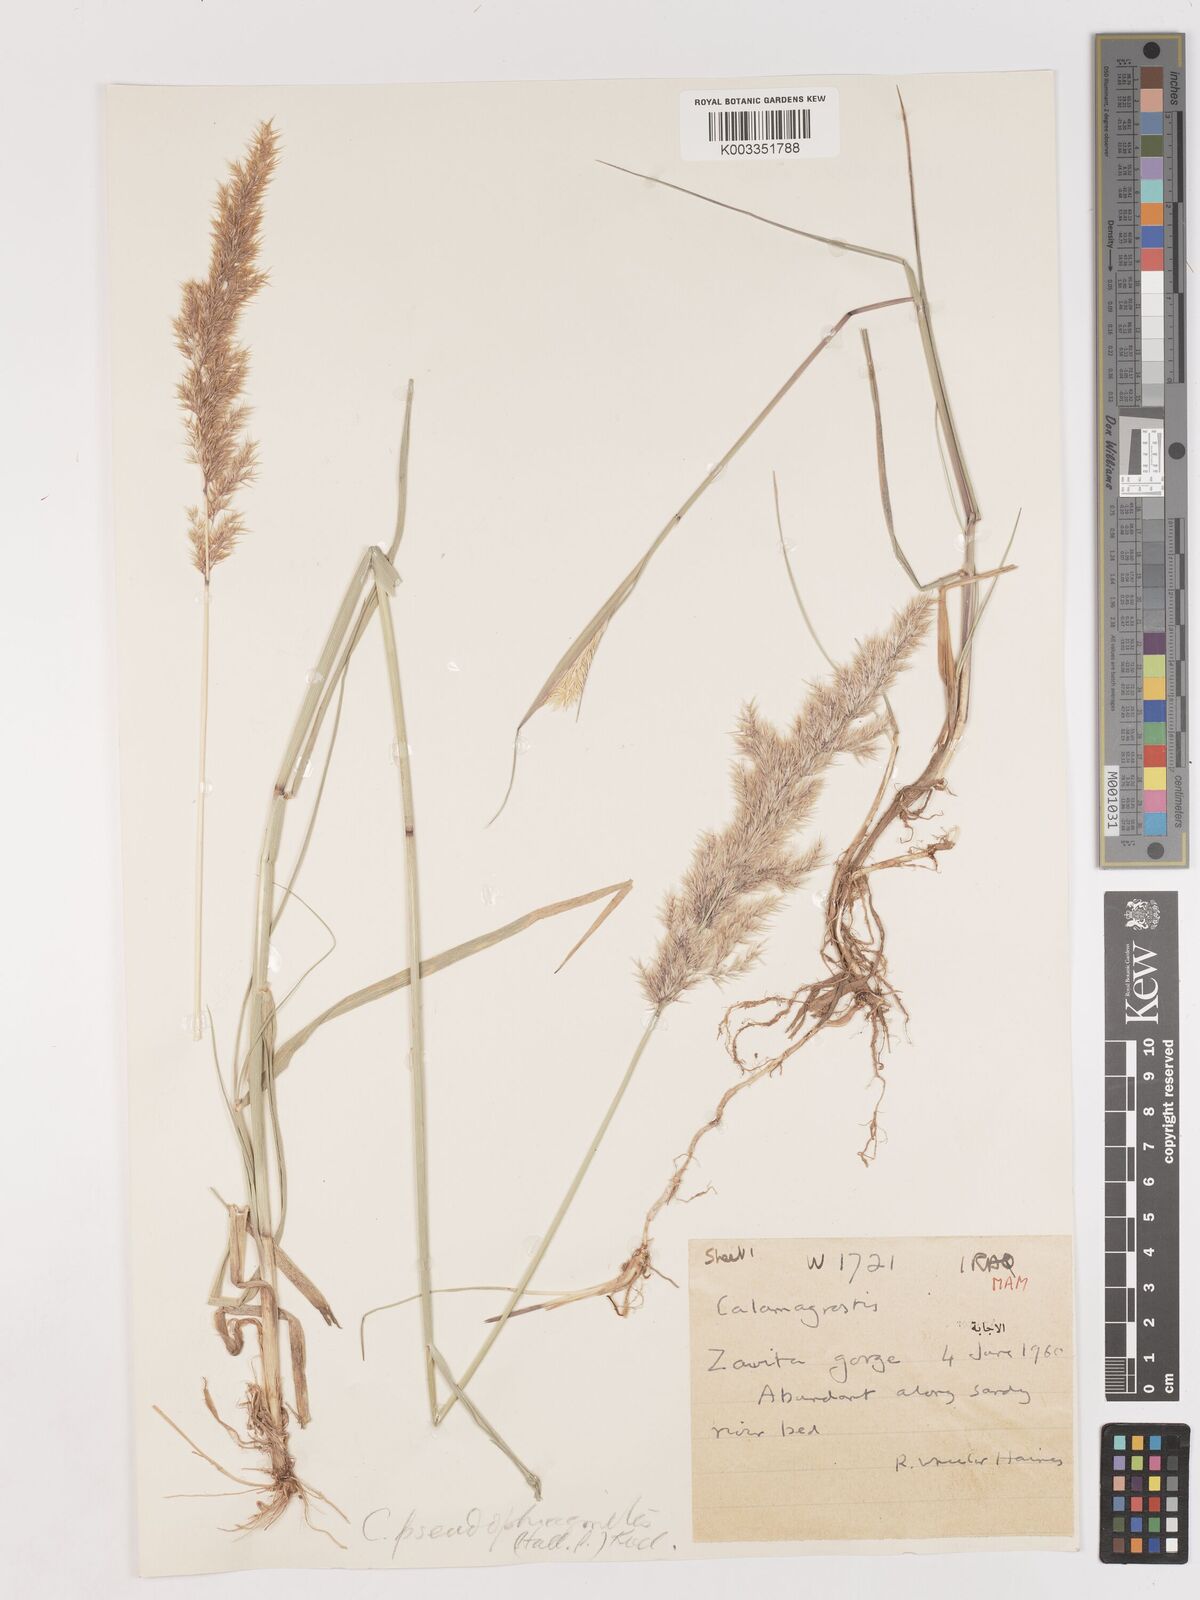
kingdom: Plantae
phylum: Tracheophyta
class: Liliopsida
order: Poales
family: Poaceae
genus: Calamagrostis
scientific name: Calamagrostis pseudophragmites
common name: Coastal small-reed
